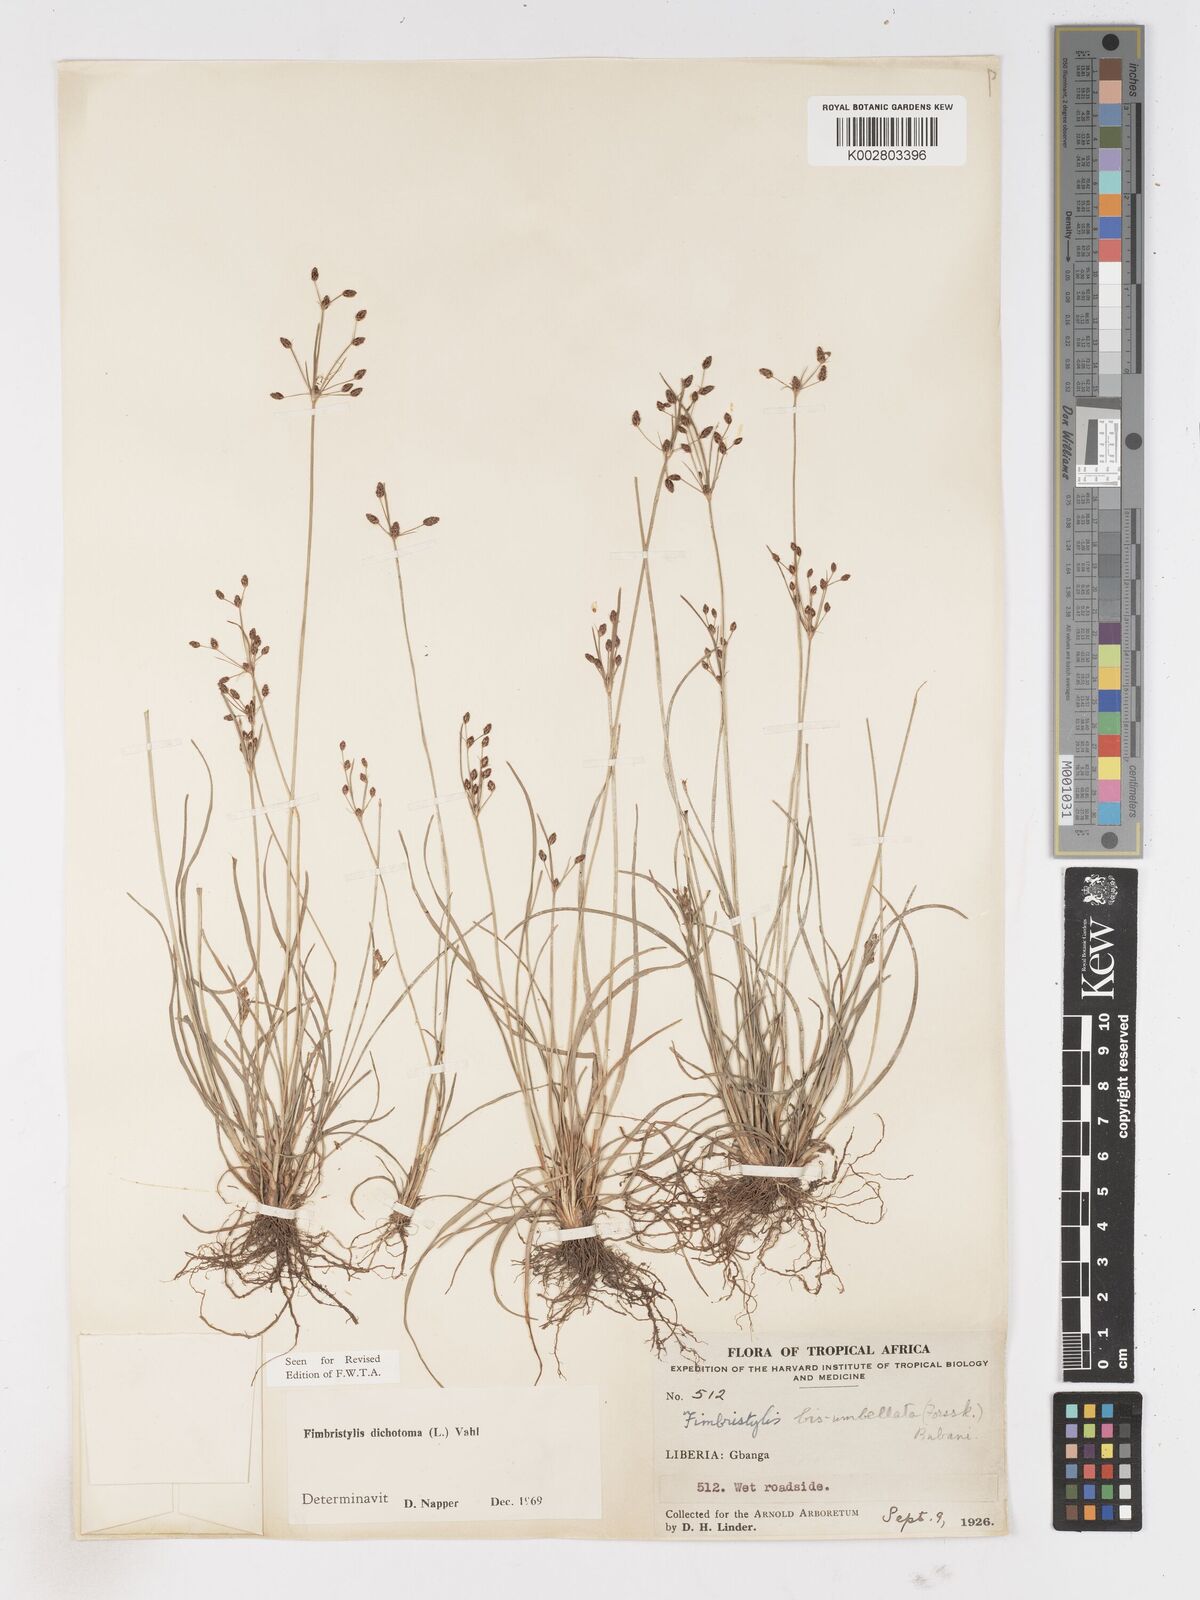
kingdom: Plantae
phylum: Tracheophyta
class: Liliopsida
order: Poales
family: Cyperaceae
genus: Fimbristylis
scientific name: Fimbristylis dichotoma
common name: Forked fimbry
